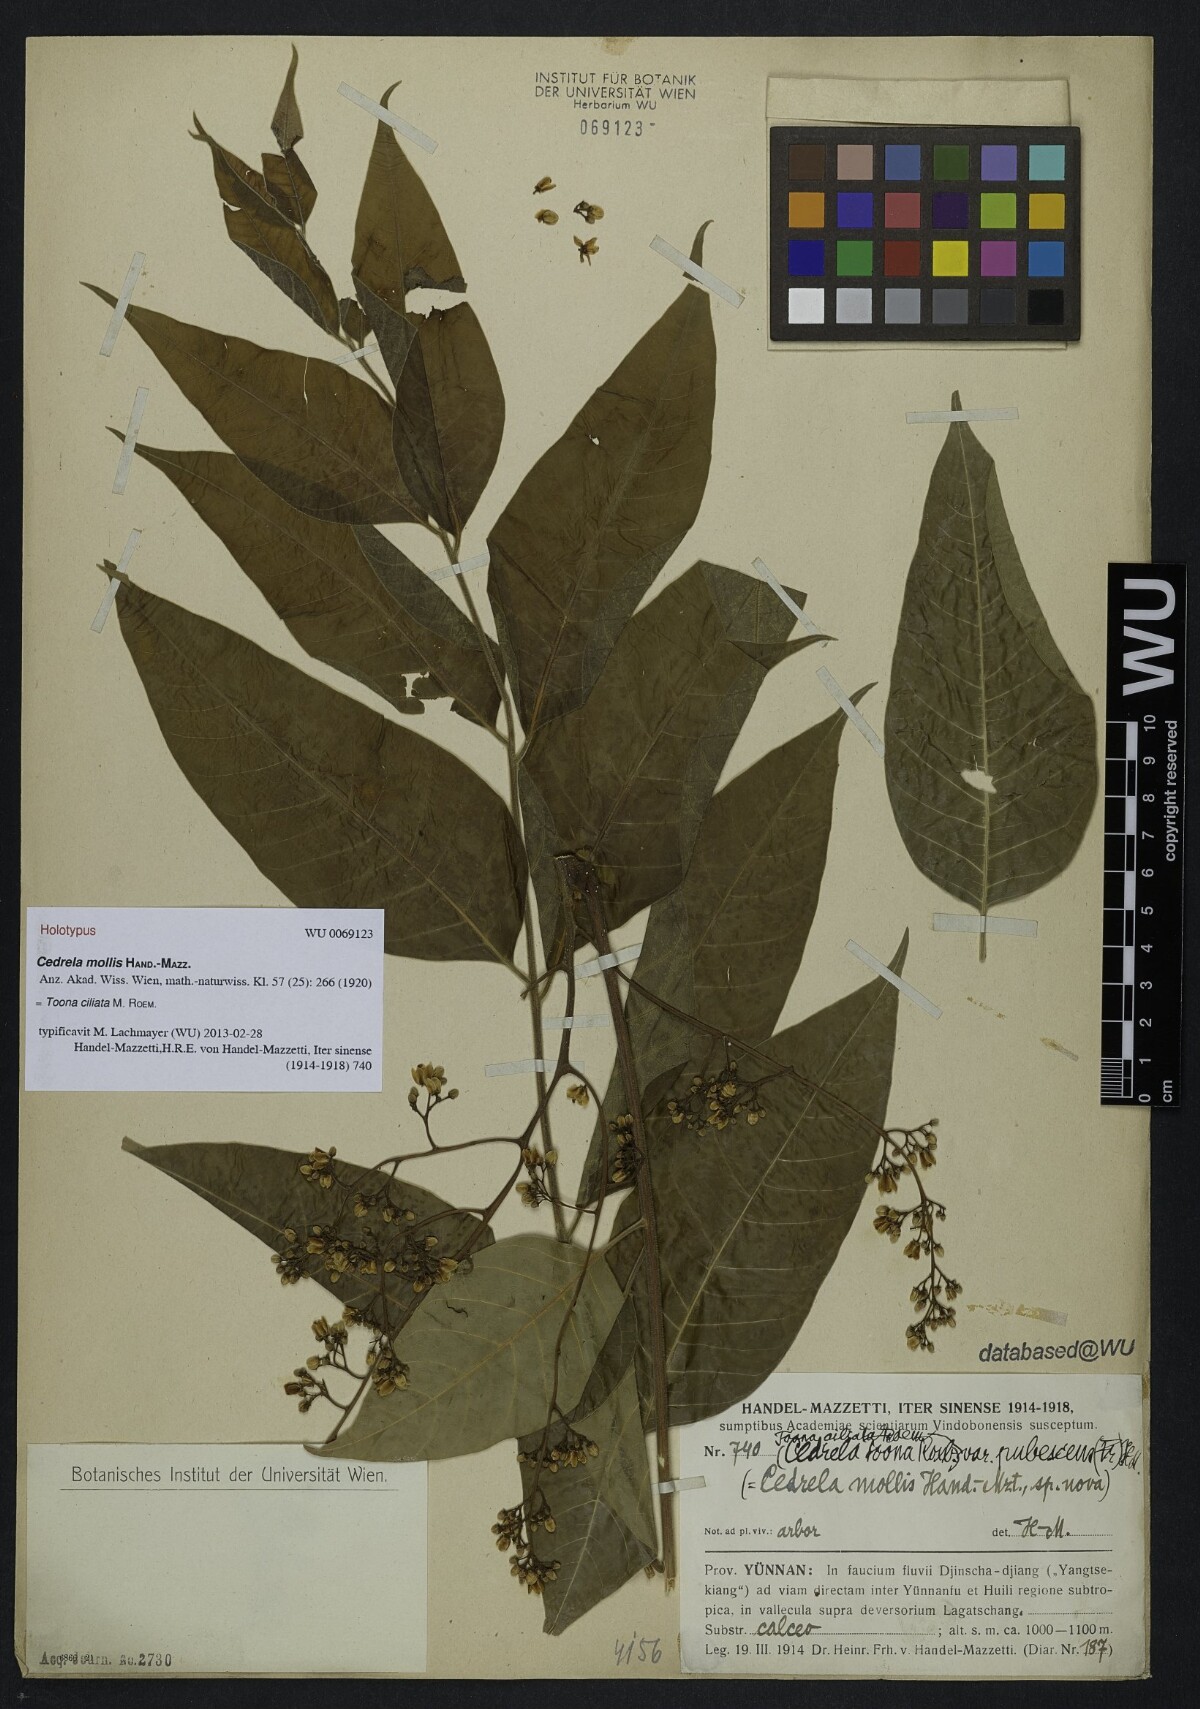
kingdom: Plantae
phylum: Tracheophyta
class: Magnoliopsida
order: Sapindales
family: Meliaceae
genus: Toona
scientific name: Toona ciliata
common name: Australian redcedar
